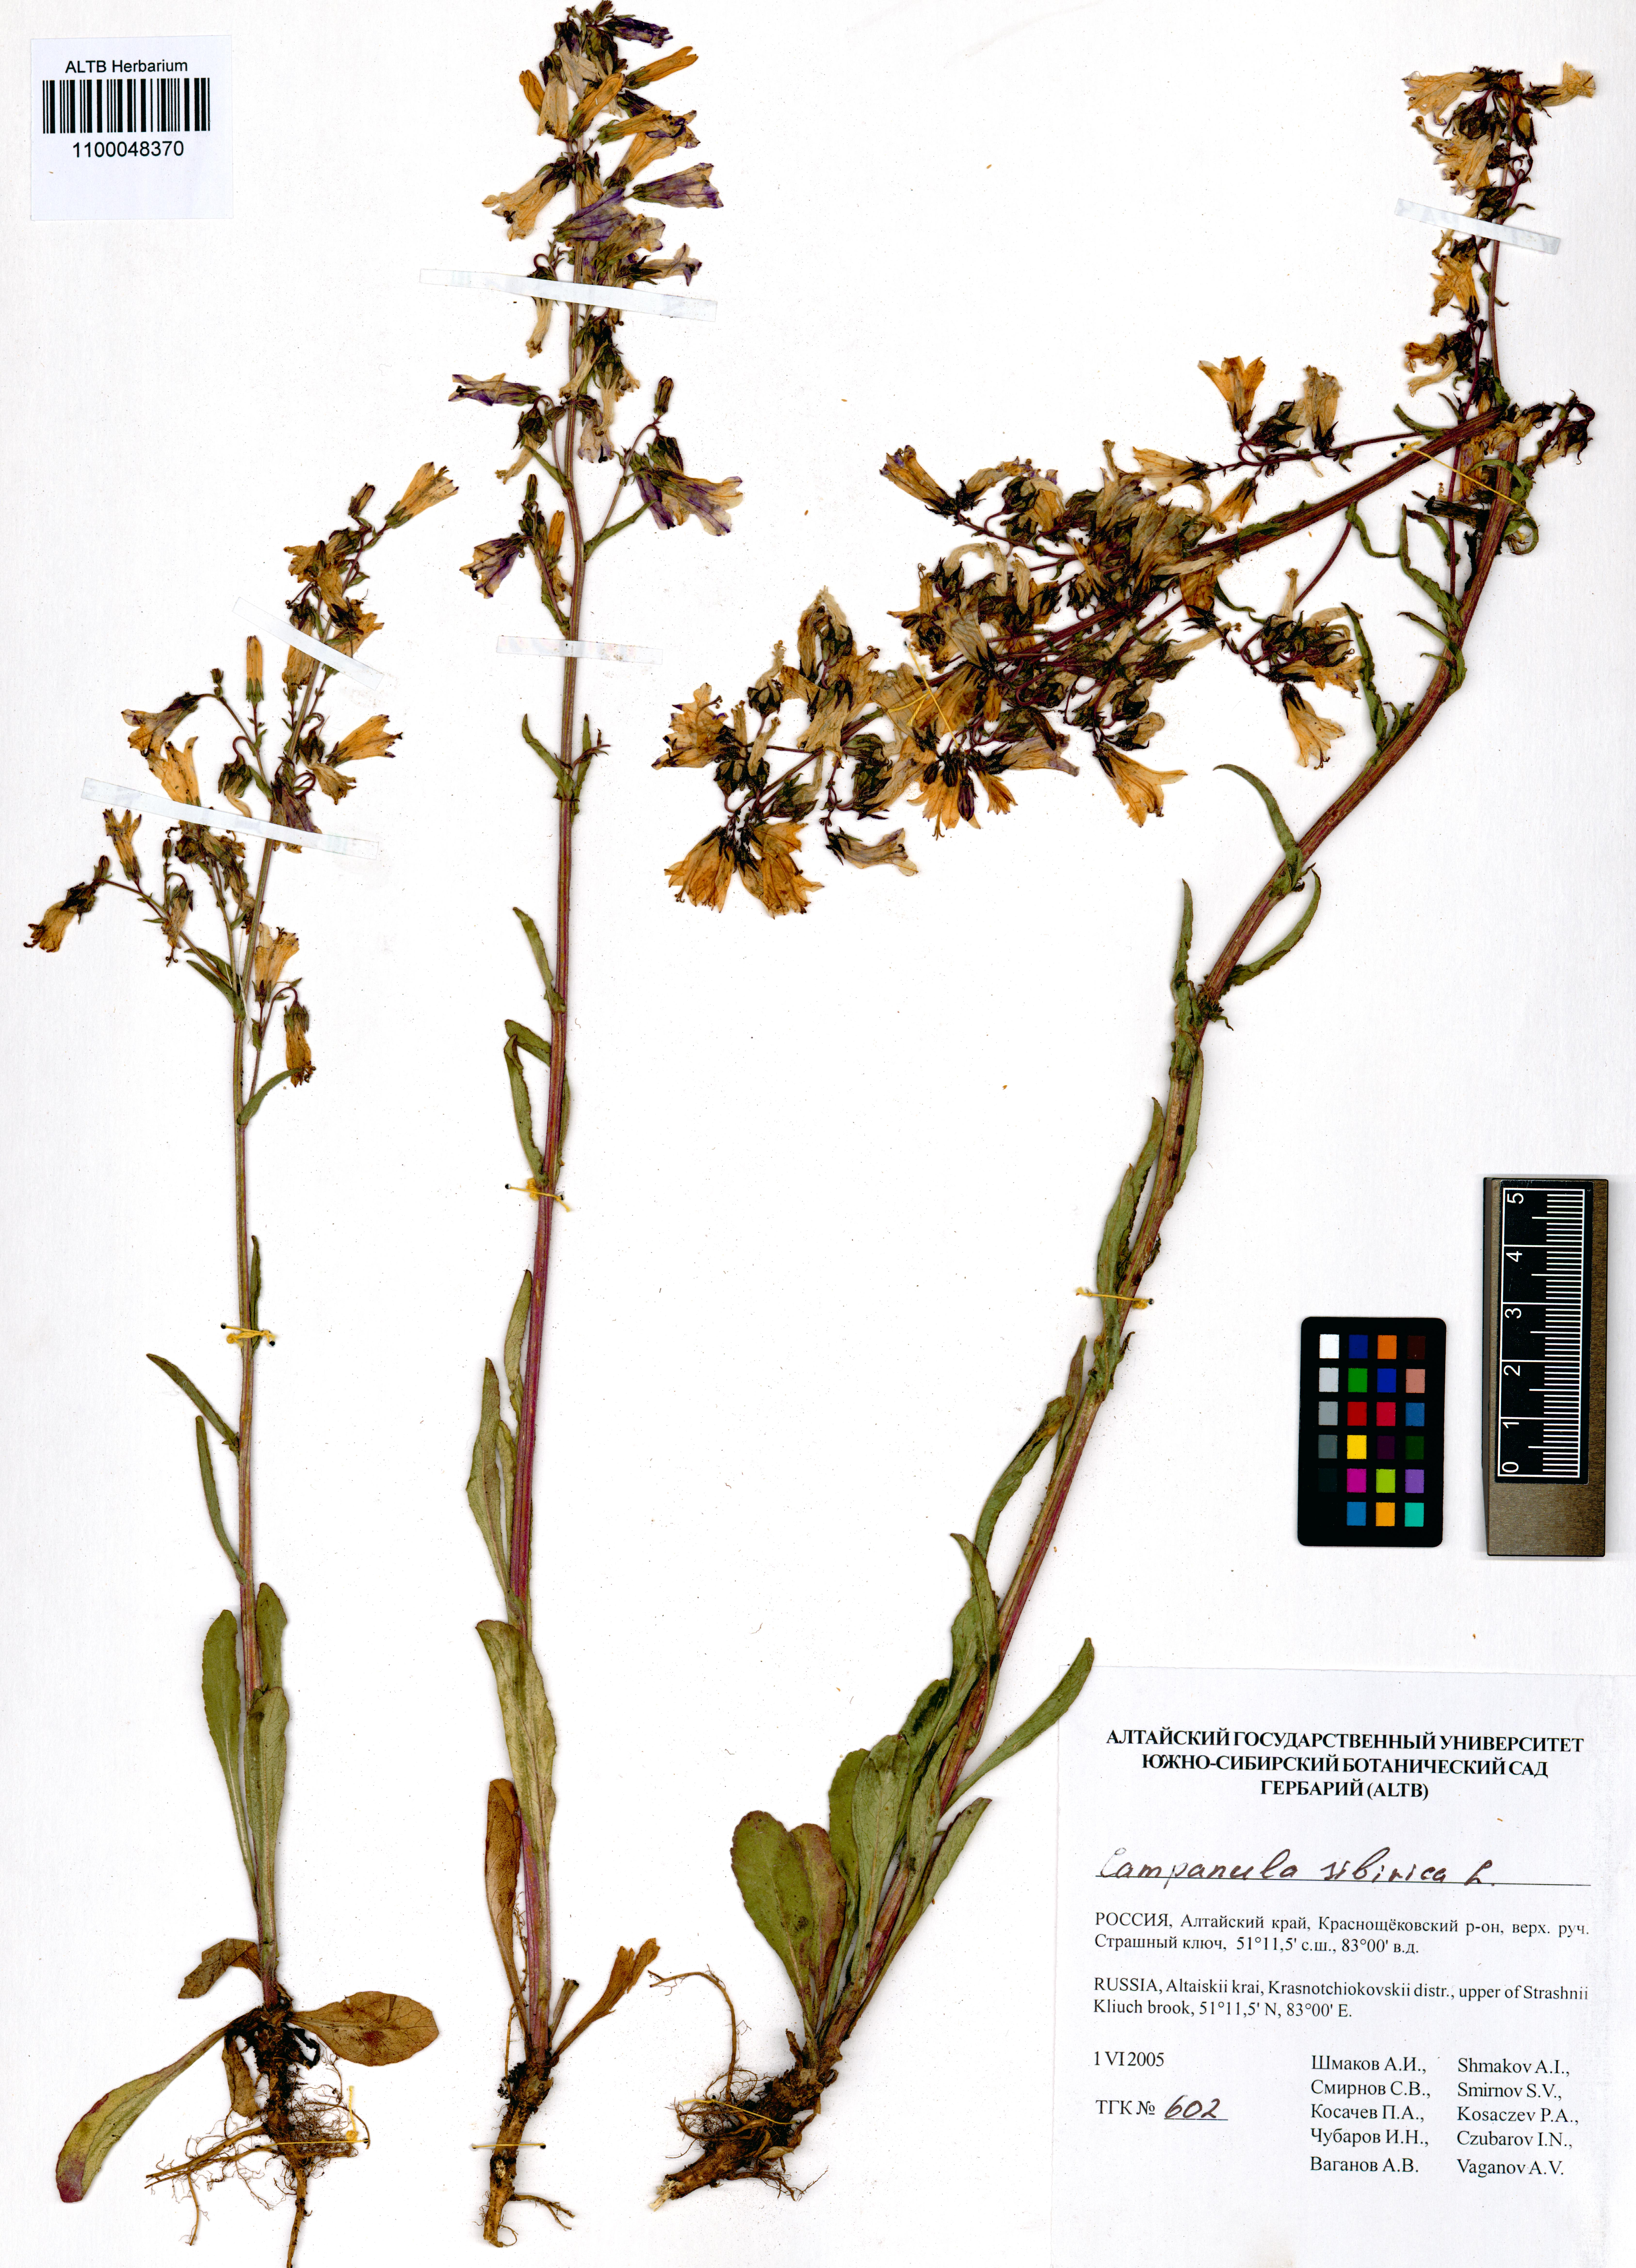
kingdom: Plantae
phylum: Tracheophyta
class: Magnoliopsida
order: Asterales
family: Campanulaceae
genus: Campanula
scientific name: Campanula sibirica
